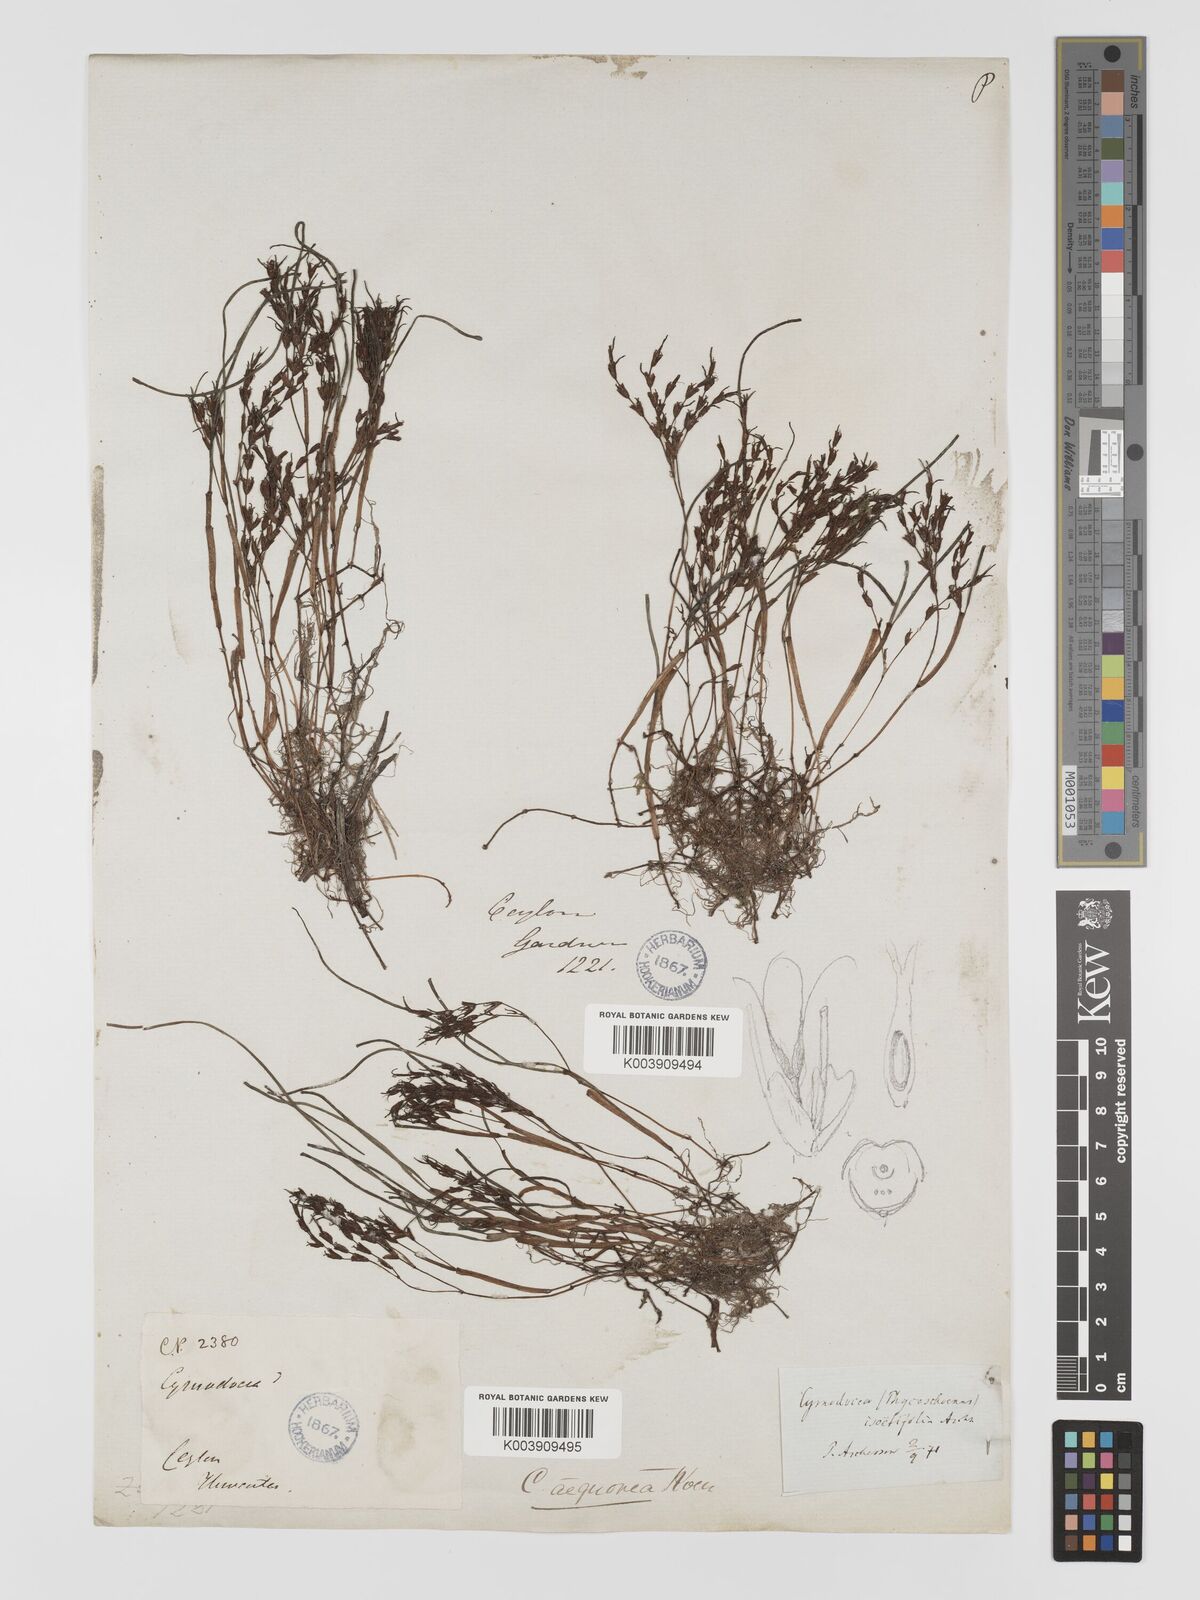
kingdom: Plantae
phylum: Tracheophyta
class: Liliopsida
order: Alismatales
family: Cymodoceaceae
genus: Syringodium
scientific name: Syringodium isoetifolium
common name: Species code: si
